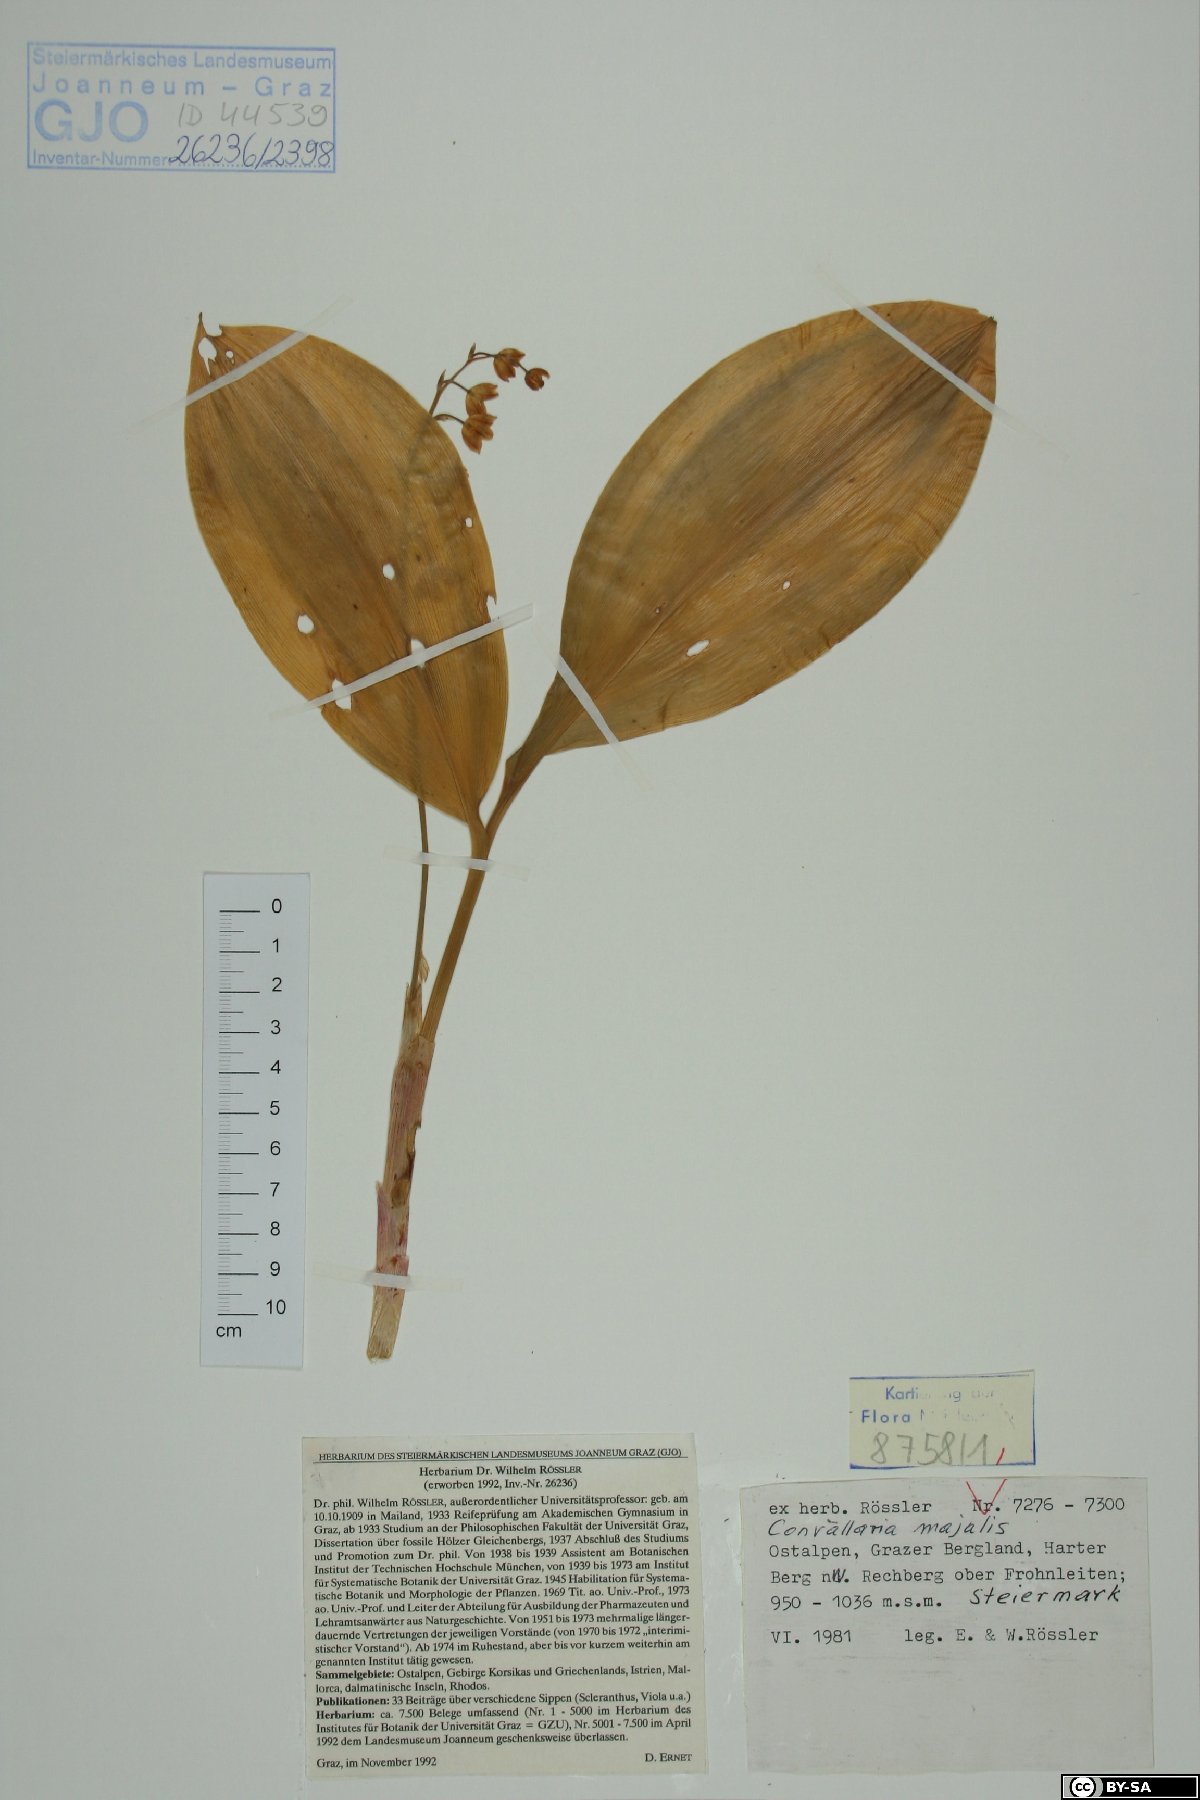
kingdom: Plantae
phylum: Tracheophyta
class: Liliopsida
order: Asparagales
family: Asparagaceae
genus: Convallaria
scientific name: Convallaria majalis
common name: Lily-of-the-valley
